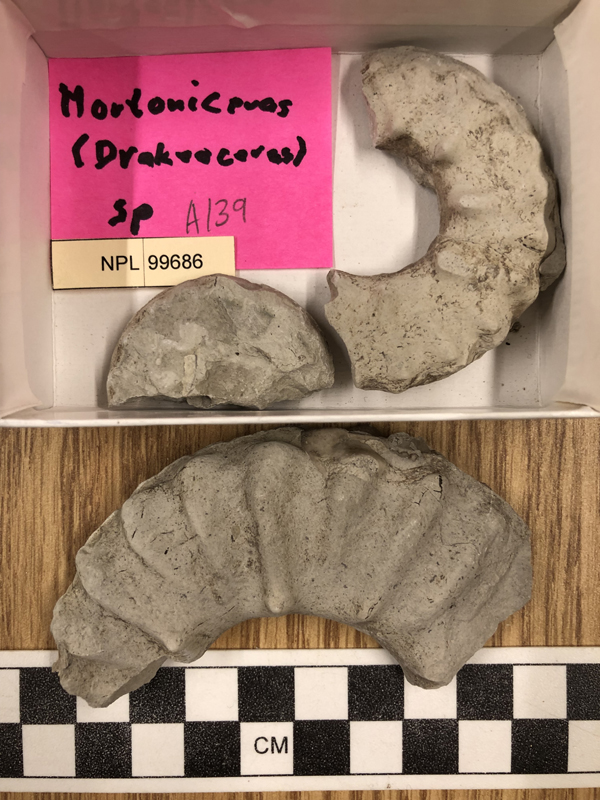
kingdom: Animalia
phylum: Mollusca
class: Cephalopoda
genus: Drakeoceras
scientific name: Drakeoceras
